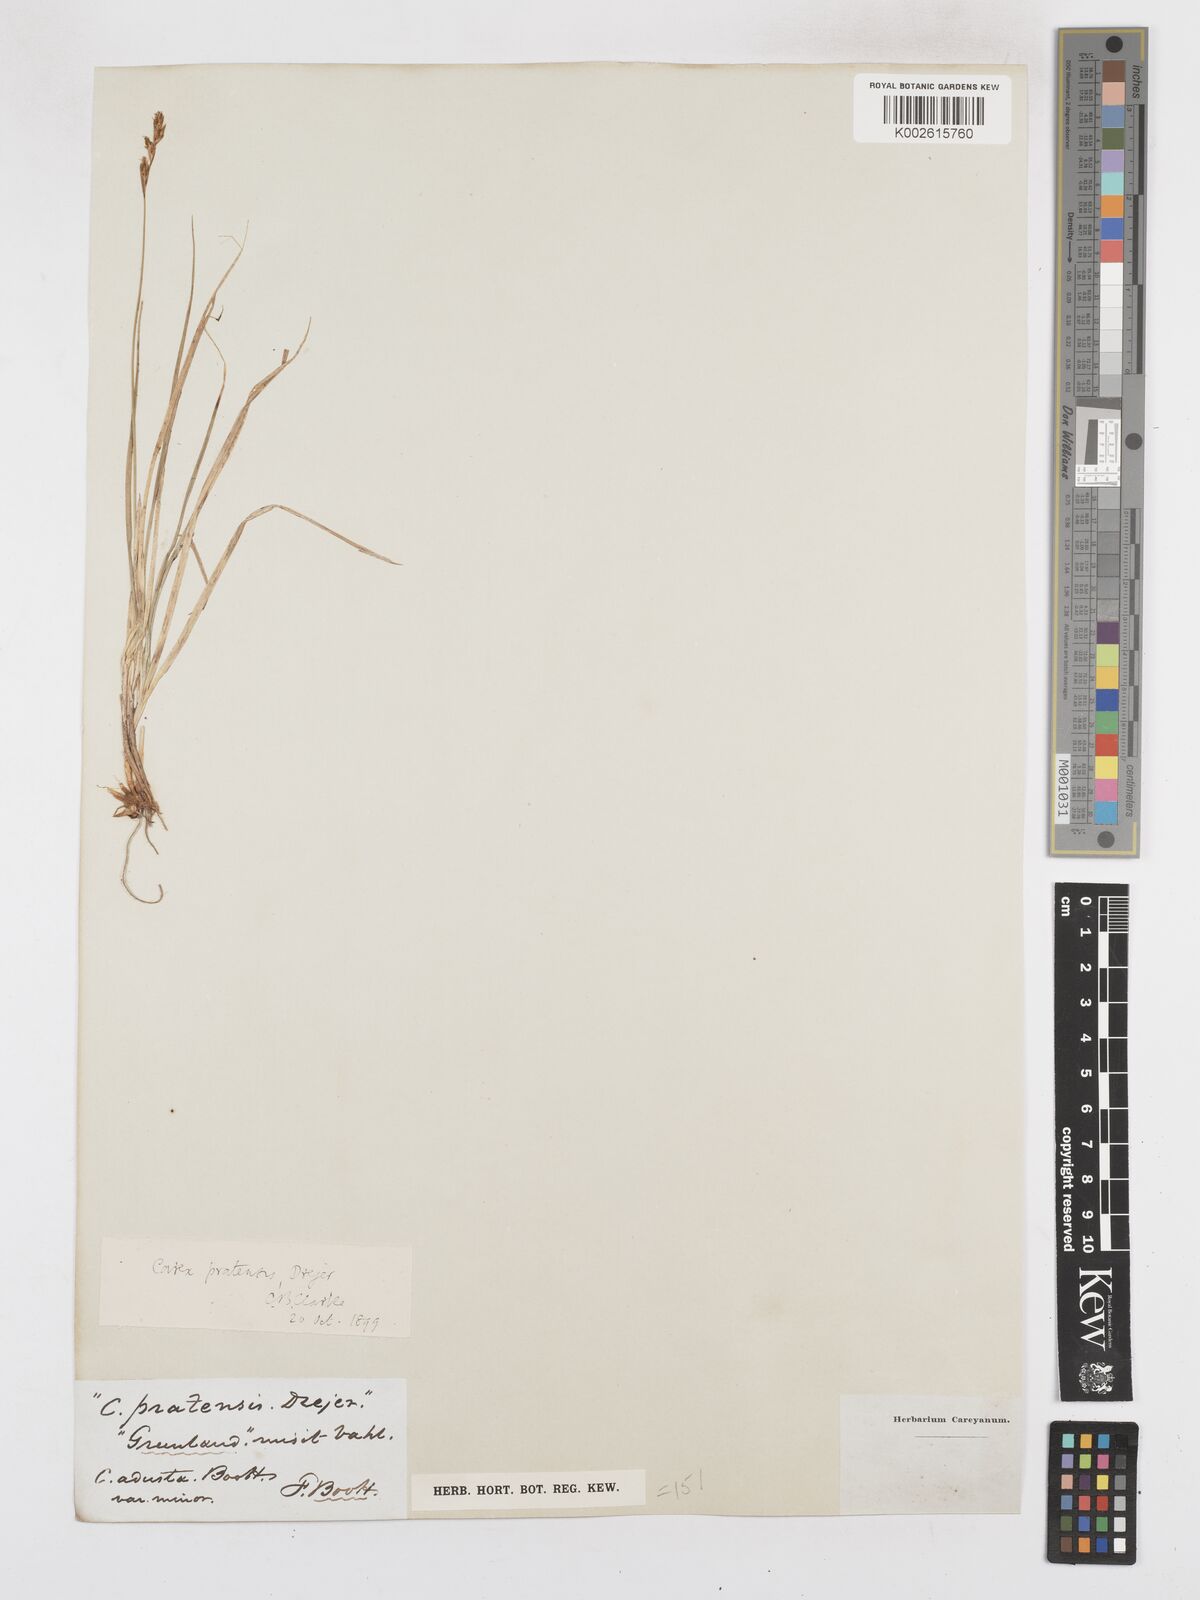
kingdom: Plantae
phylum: Tracheophyta
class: Liliopsida
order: Poales
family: Cyperaceae
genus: Carex
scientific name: Carex praticola
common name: Large-fruited oval sedge
